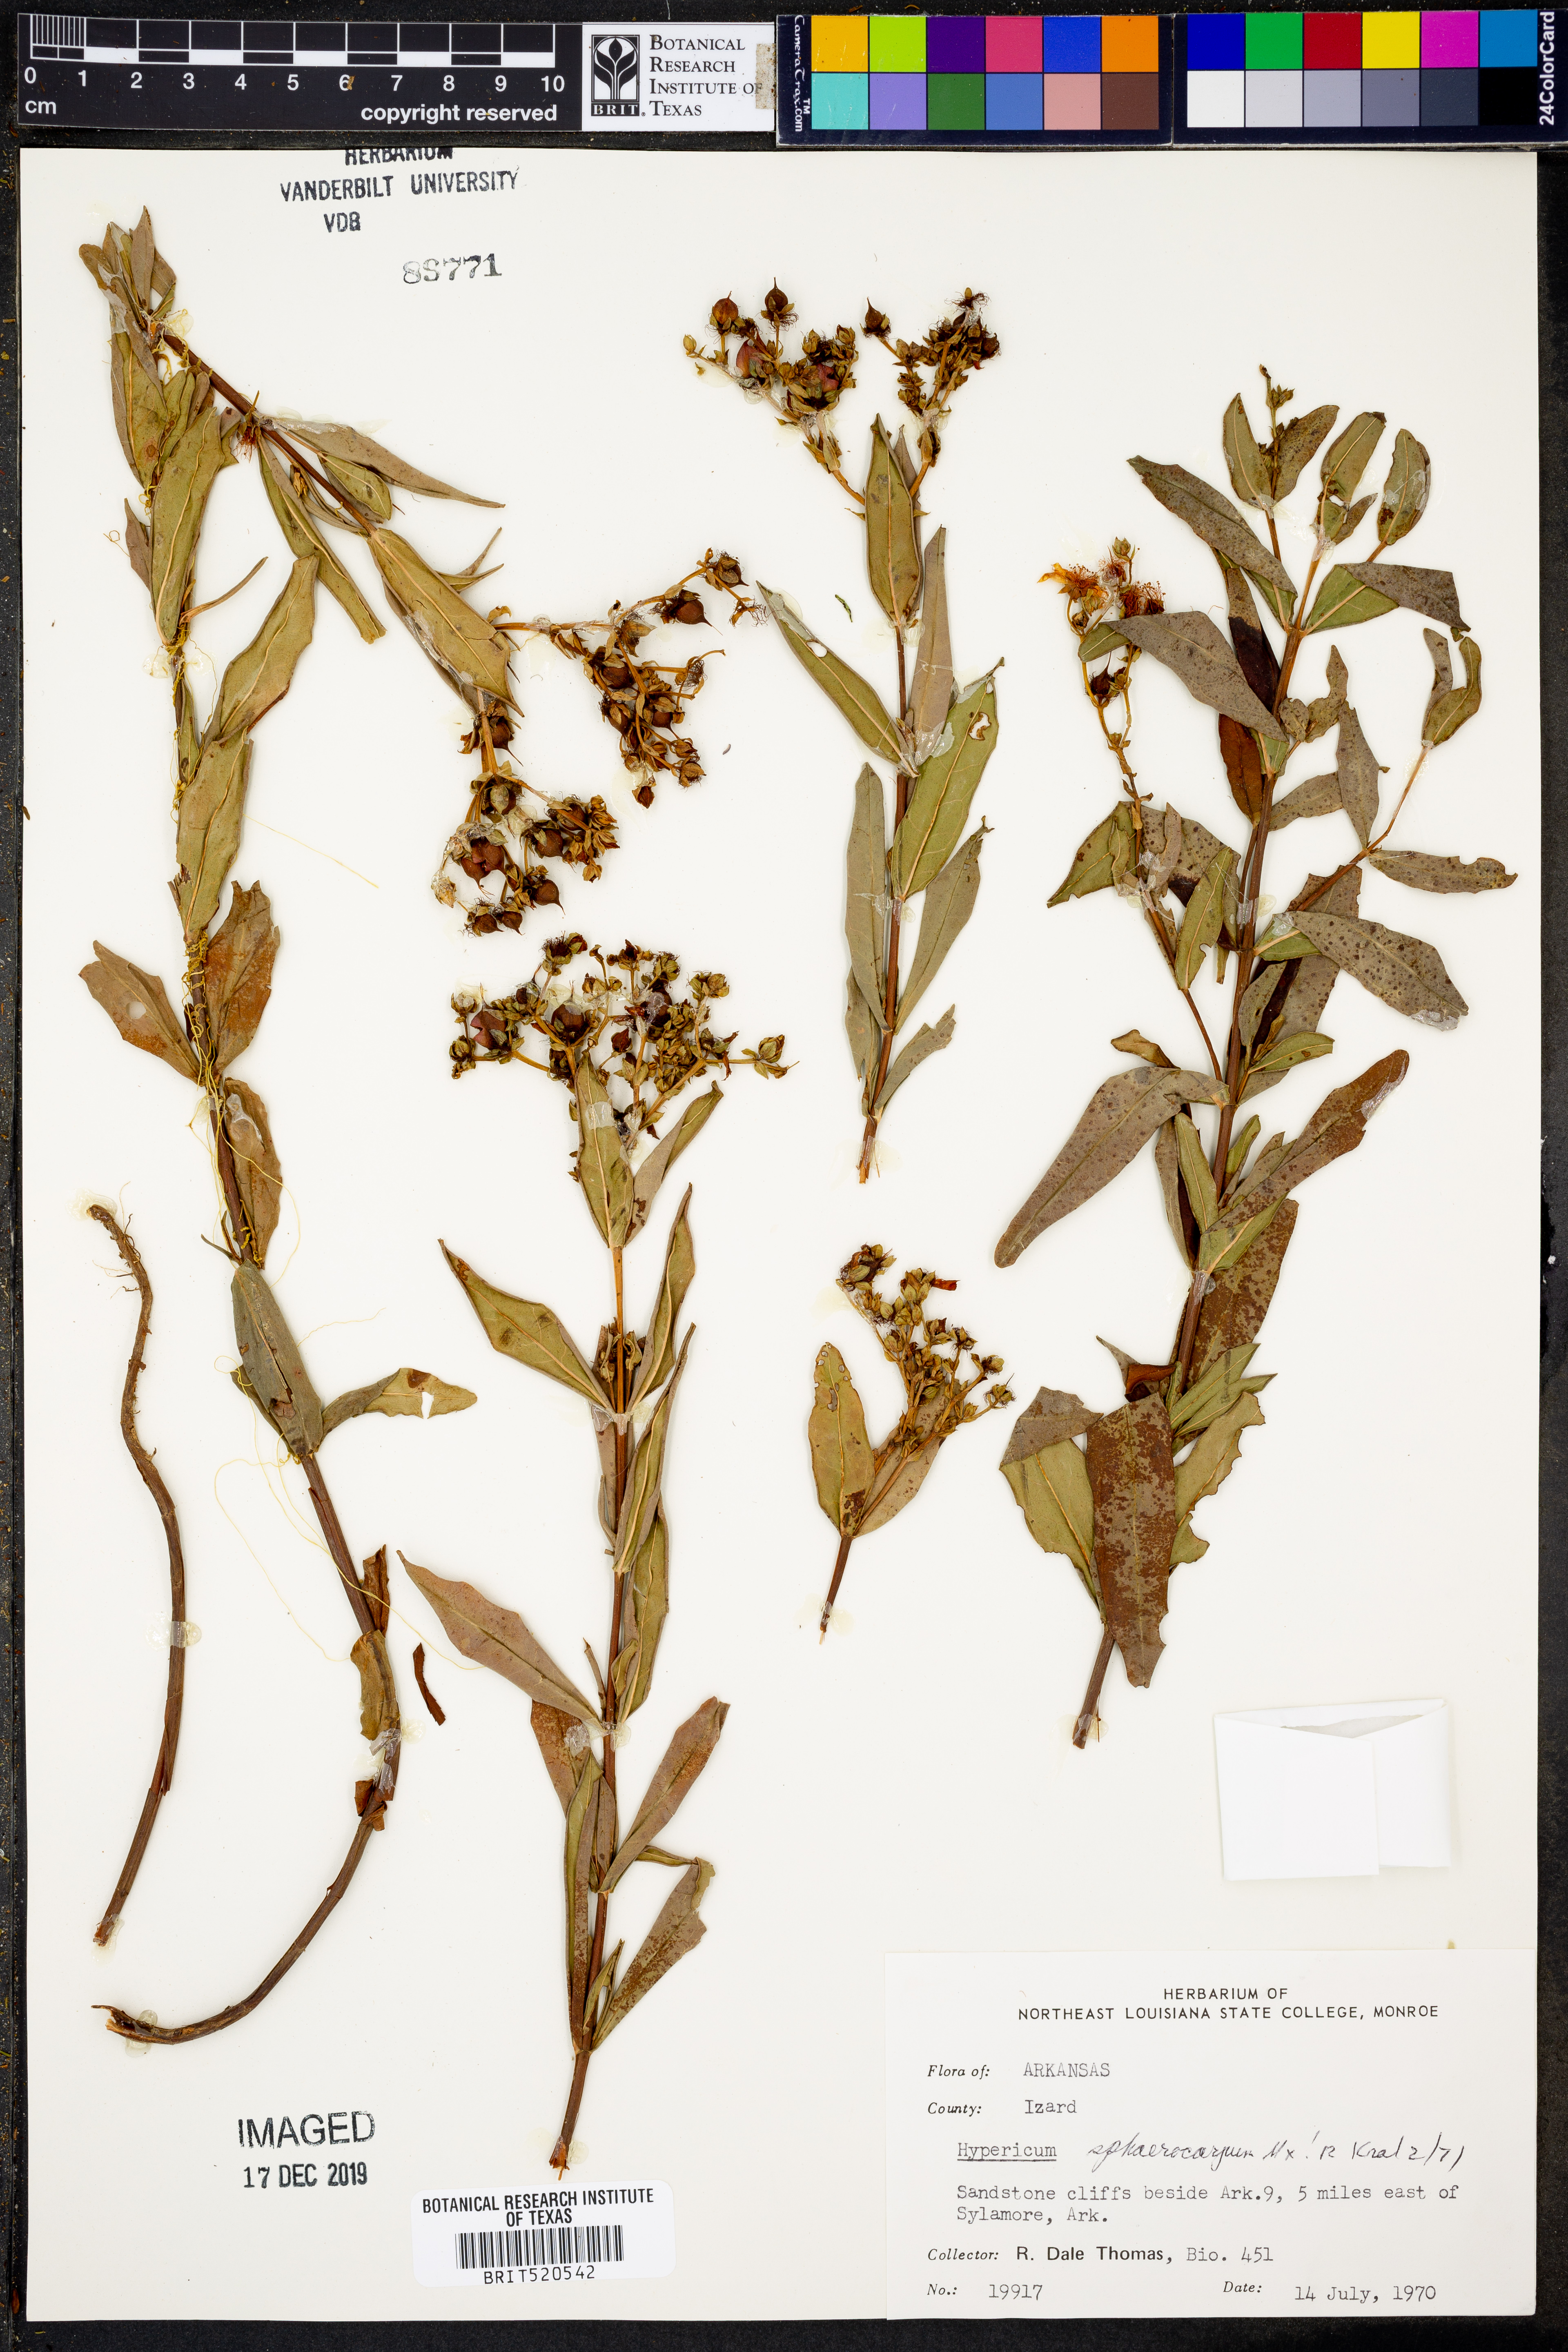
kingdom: Plantae
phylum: Tracheophyta
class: Magnoliopsida
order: Malpighiales
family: Hypericaceae
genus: Hypericum
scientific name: Hypericum sphaerocarpum
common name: Round-fruited st. john's-wort
